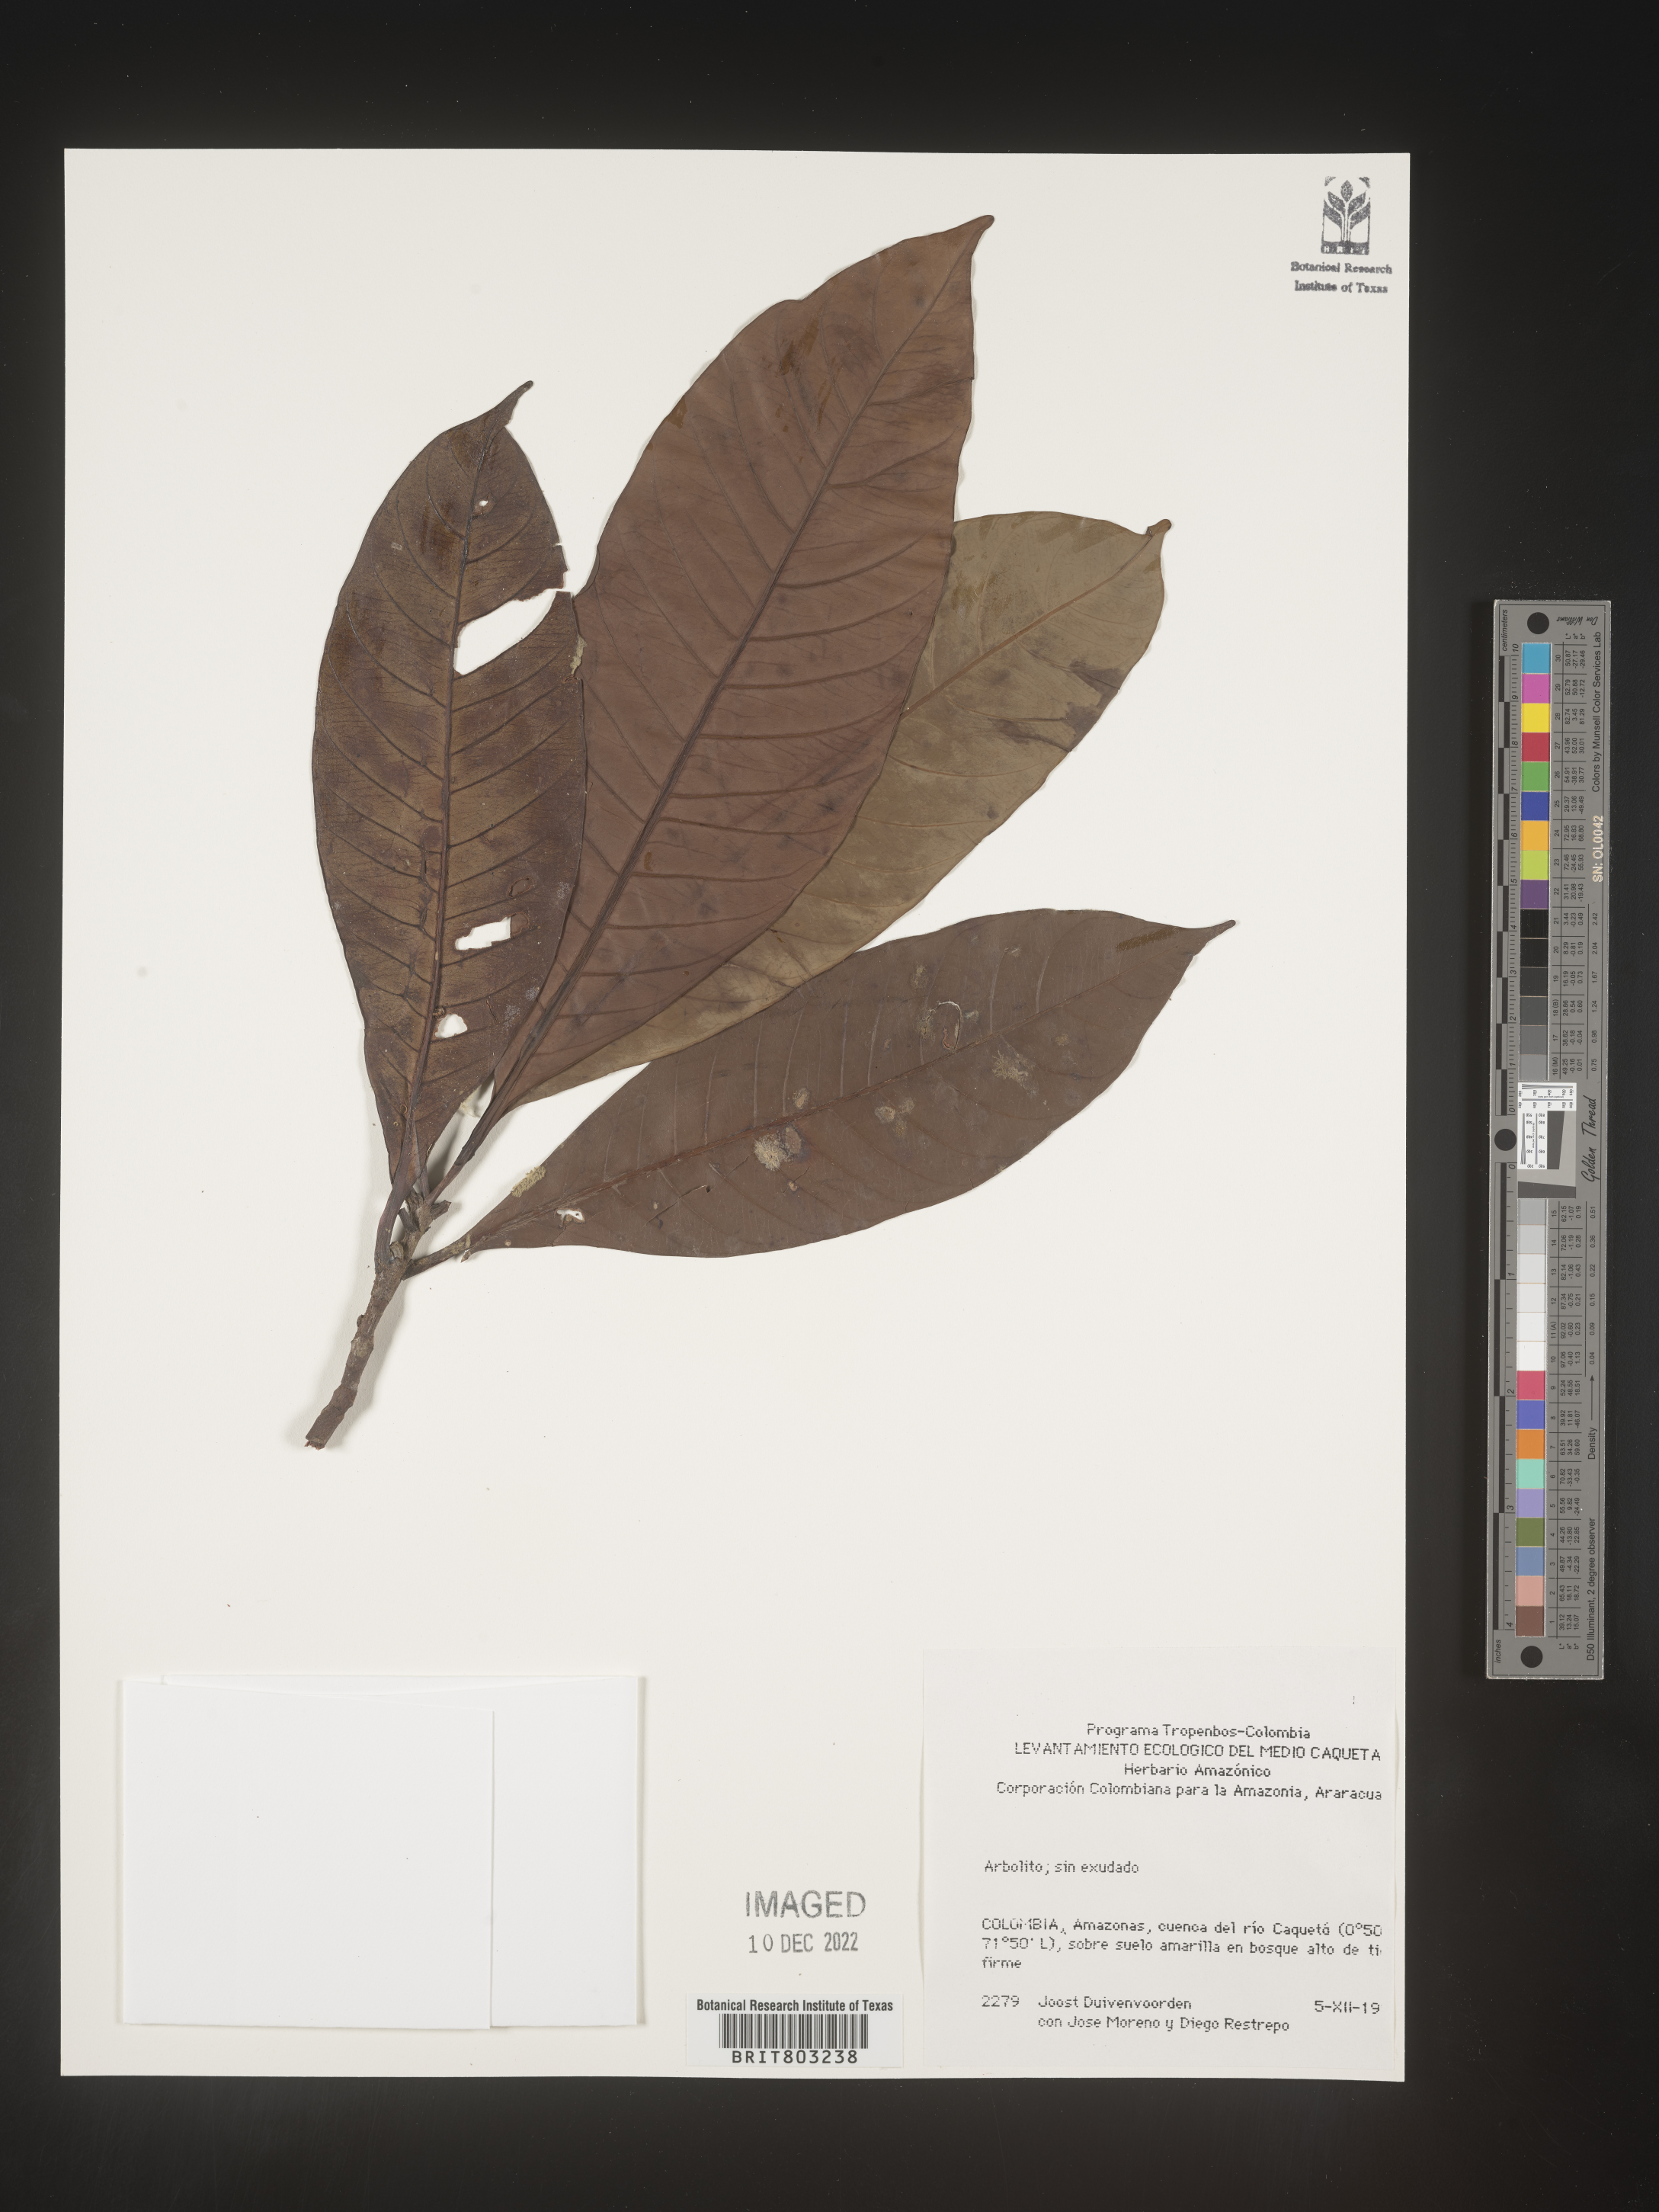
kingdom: Plantae
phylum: Tracheophyta
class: Magnoliopsida
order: Malpighiales
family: Clusiaceae
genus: Tovomita
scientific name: Tovomita
